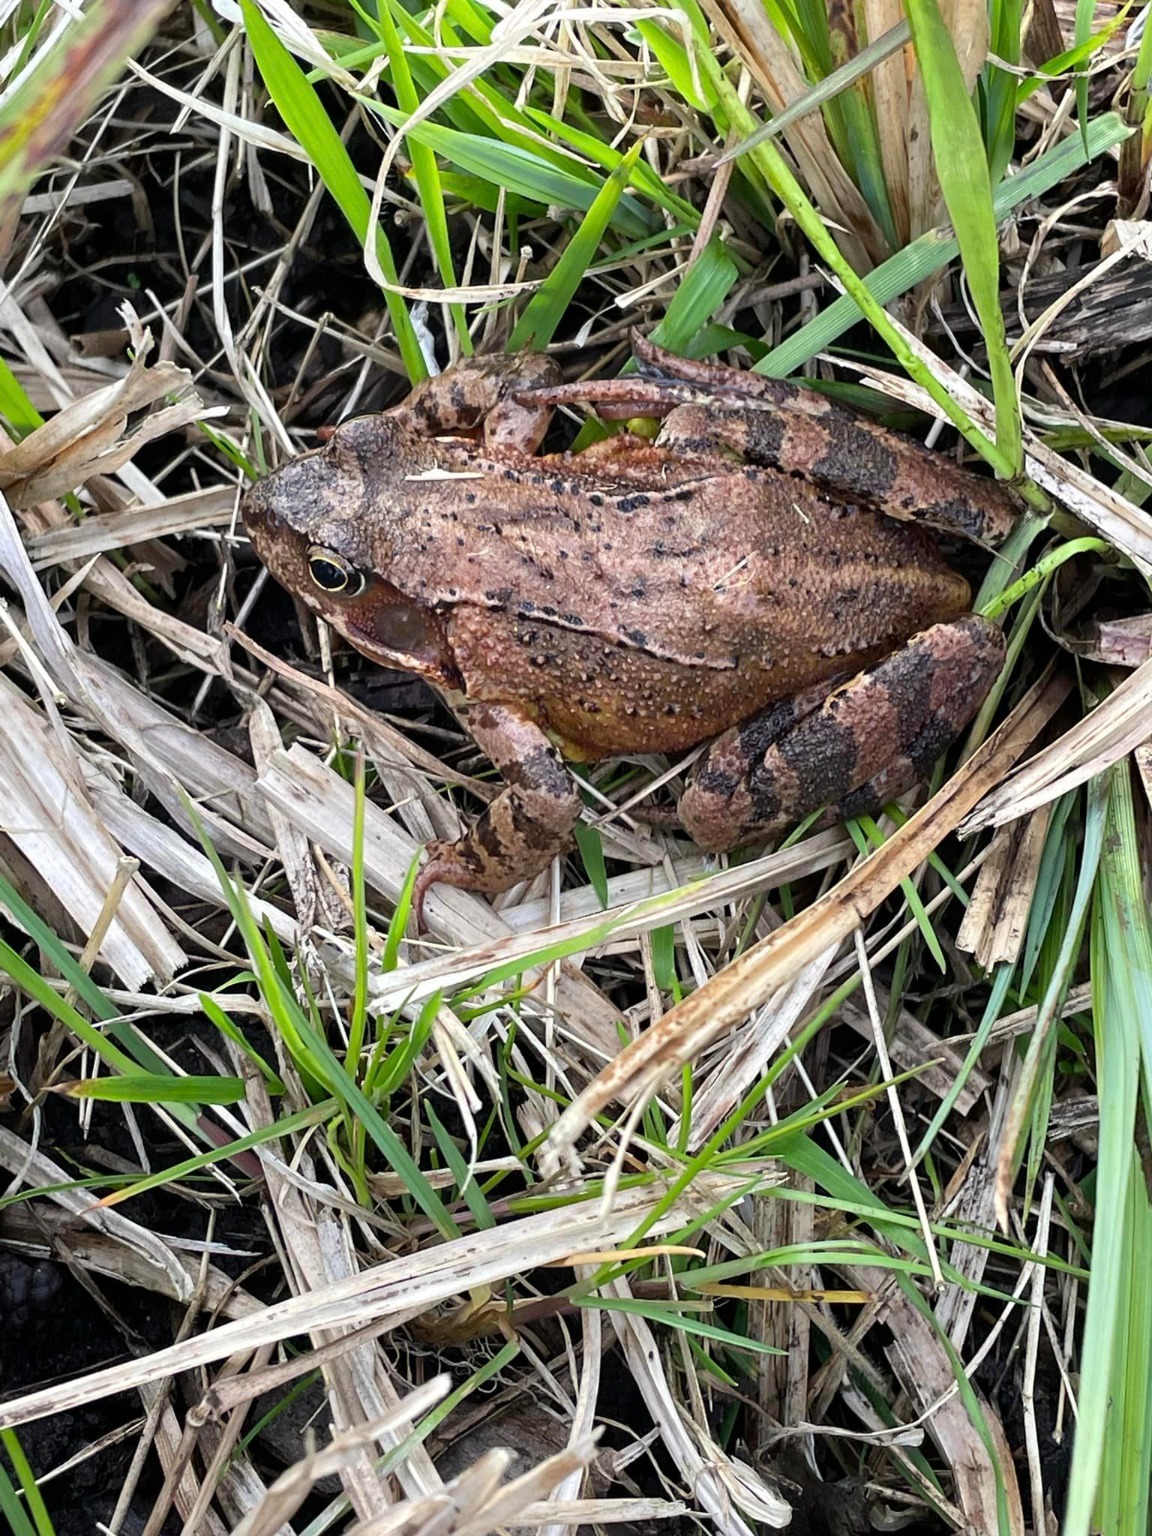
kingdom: Animalia
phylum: Chordata
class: Amphibia
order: Anura
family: Ranidae
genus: Rana
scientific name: Rana temporaria
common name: Butsnudet frø
